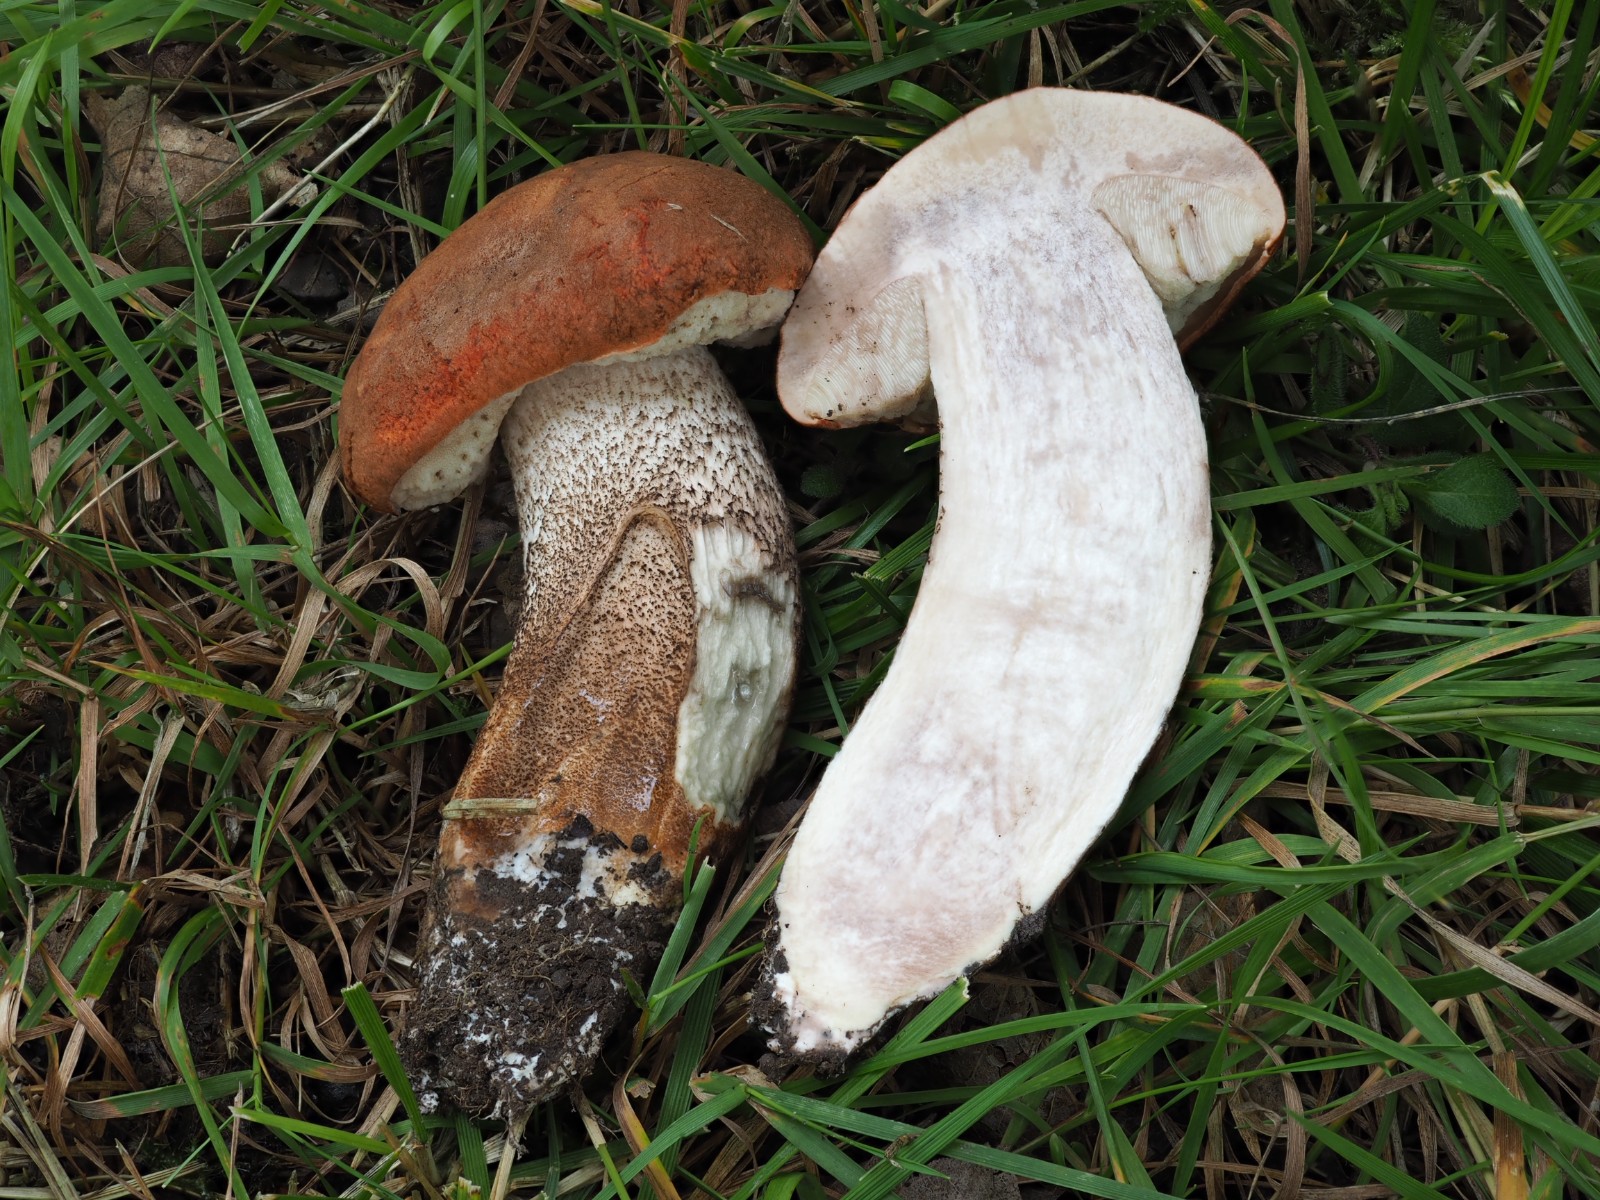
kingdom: Fungi
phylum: Basidiomycota
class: Agaricomycetes
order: Boletales
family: Boletaceae
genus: Leccinum
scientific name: Leccinum aurantiacum
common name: rustrød skælrørhat
